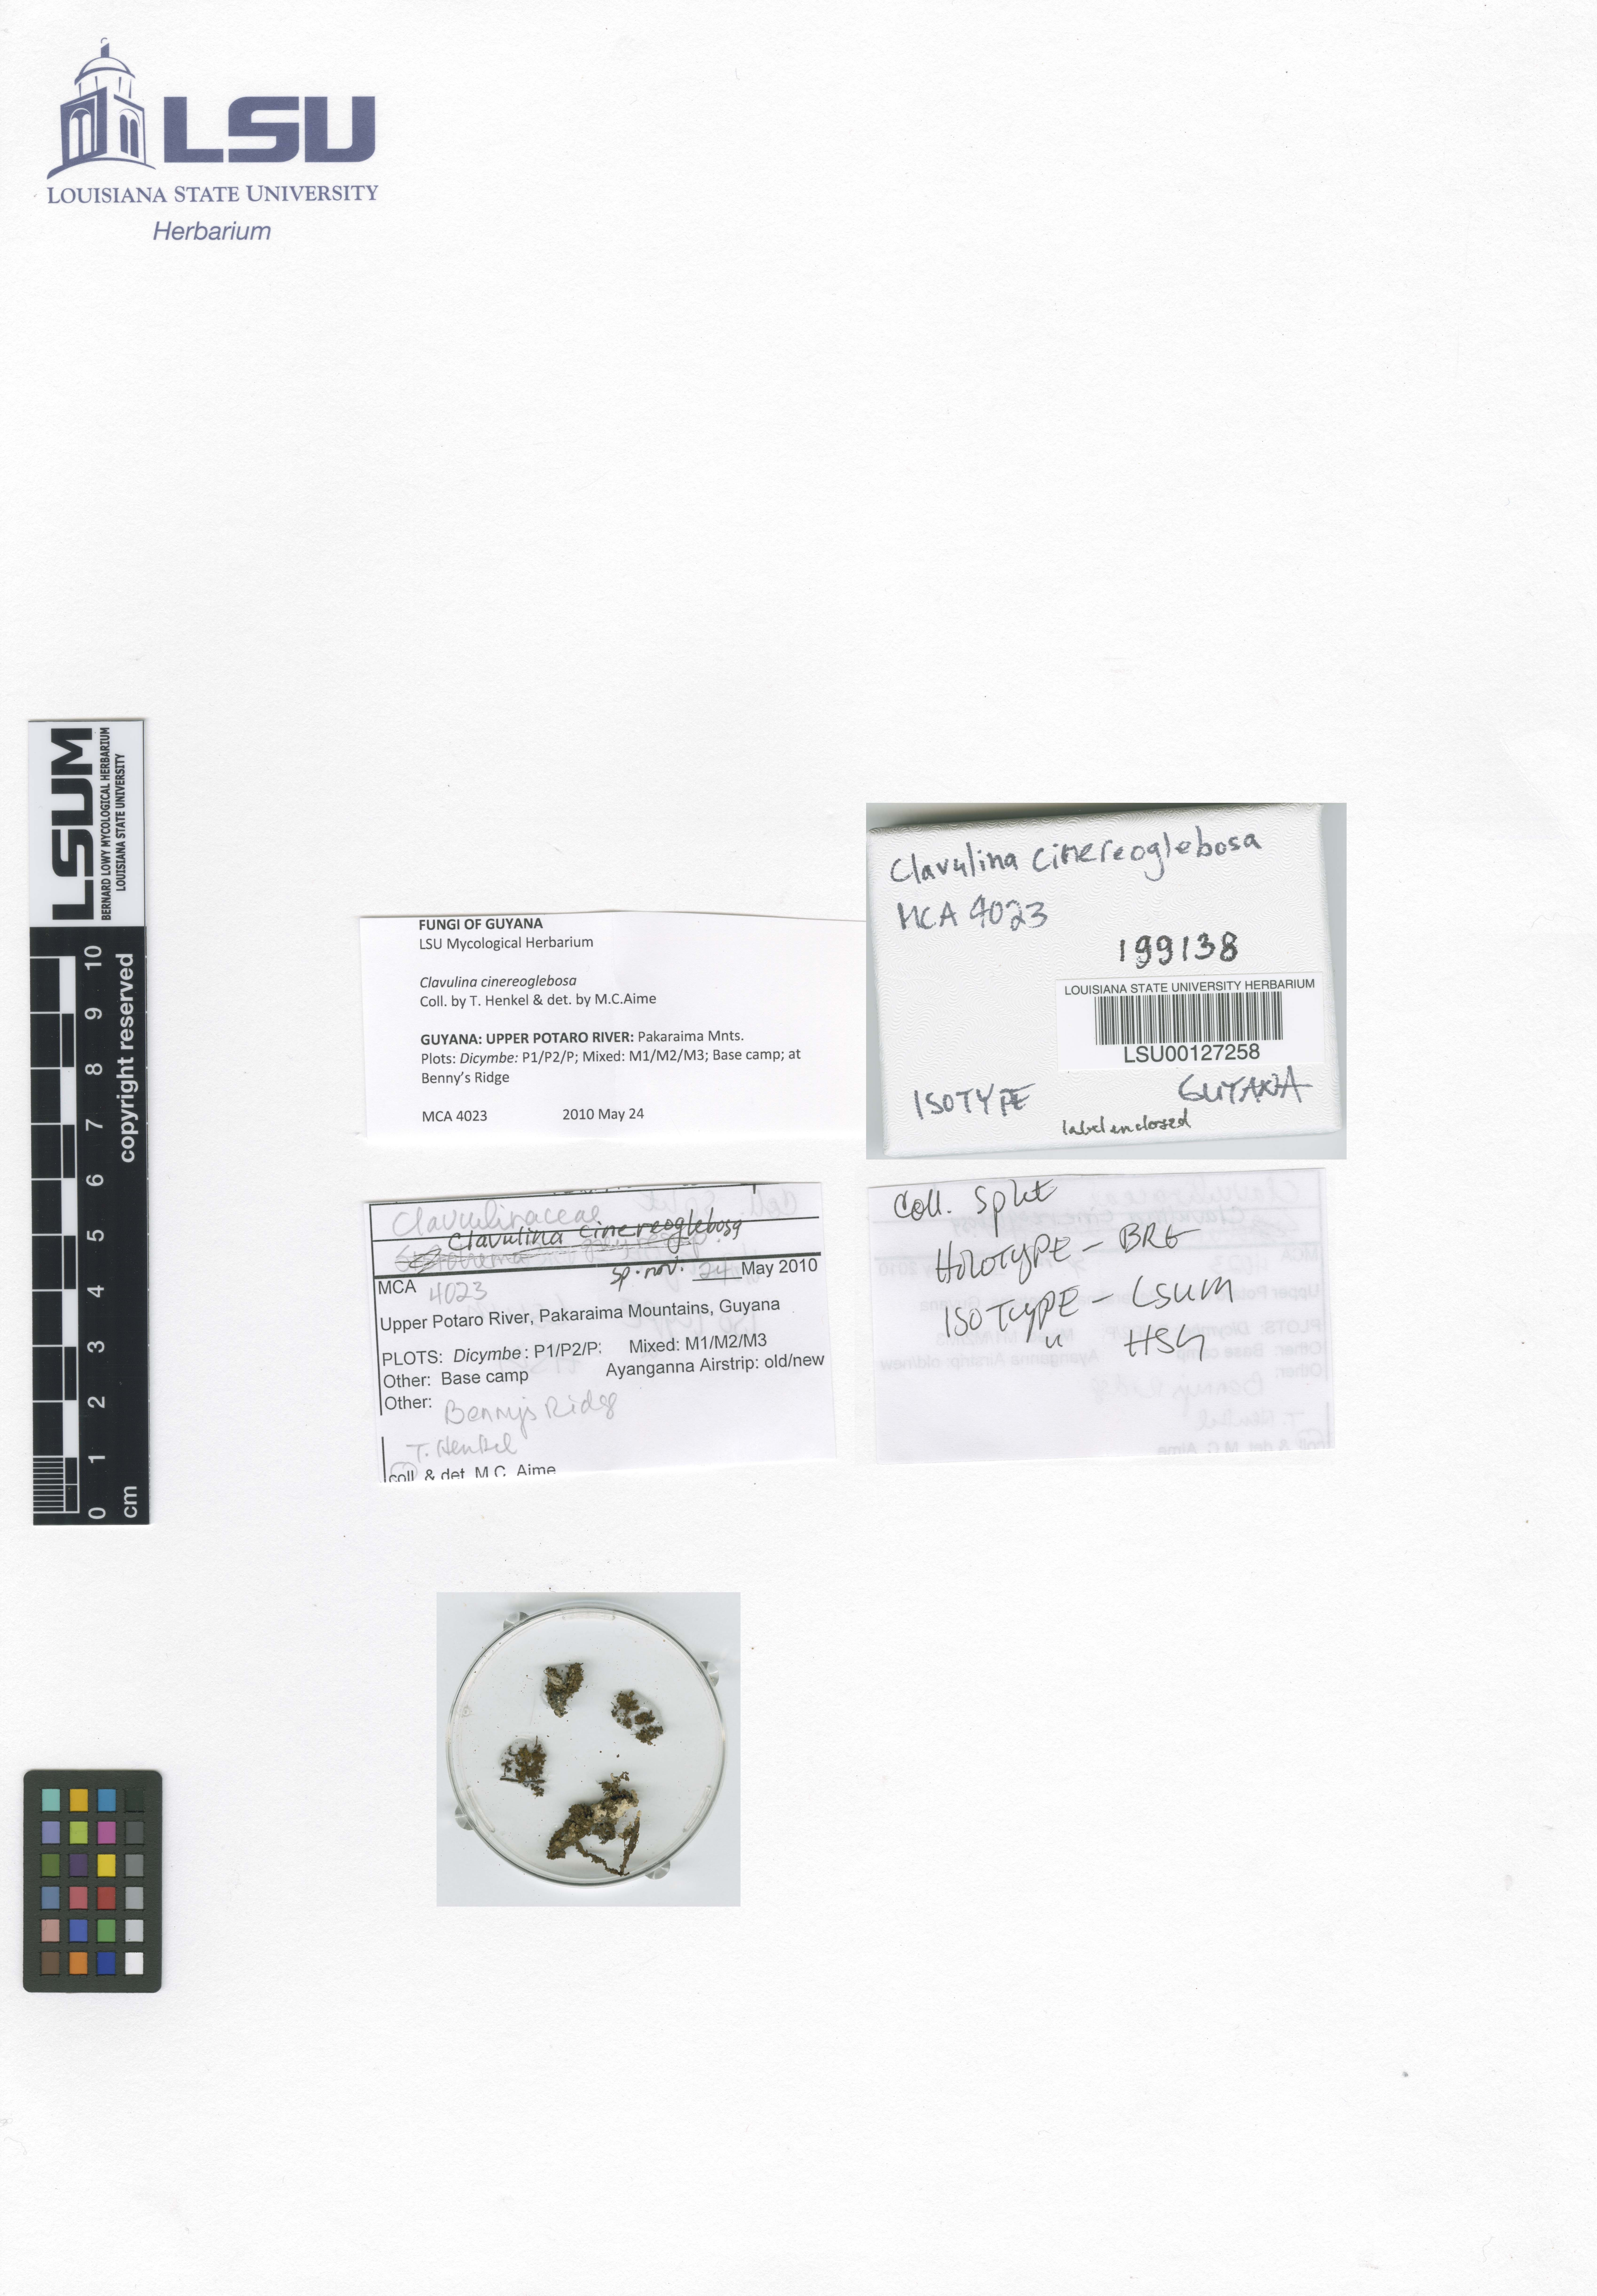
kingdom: Fungi
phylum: Basidiomycota
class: Agaricomycetes
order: Cantharellales
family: Hydnaceae
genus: Clavulina
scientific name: Clavulina cinereoglebosa
